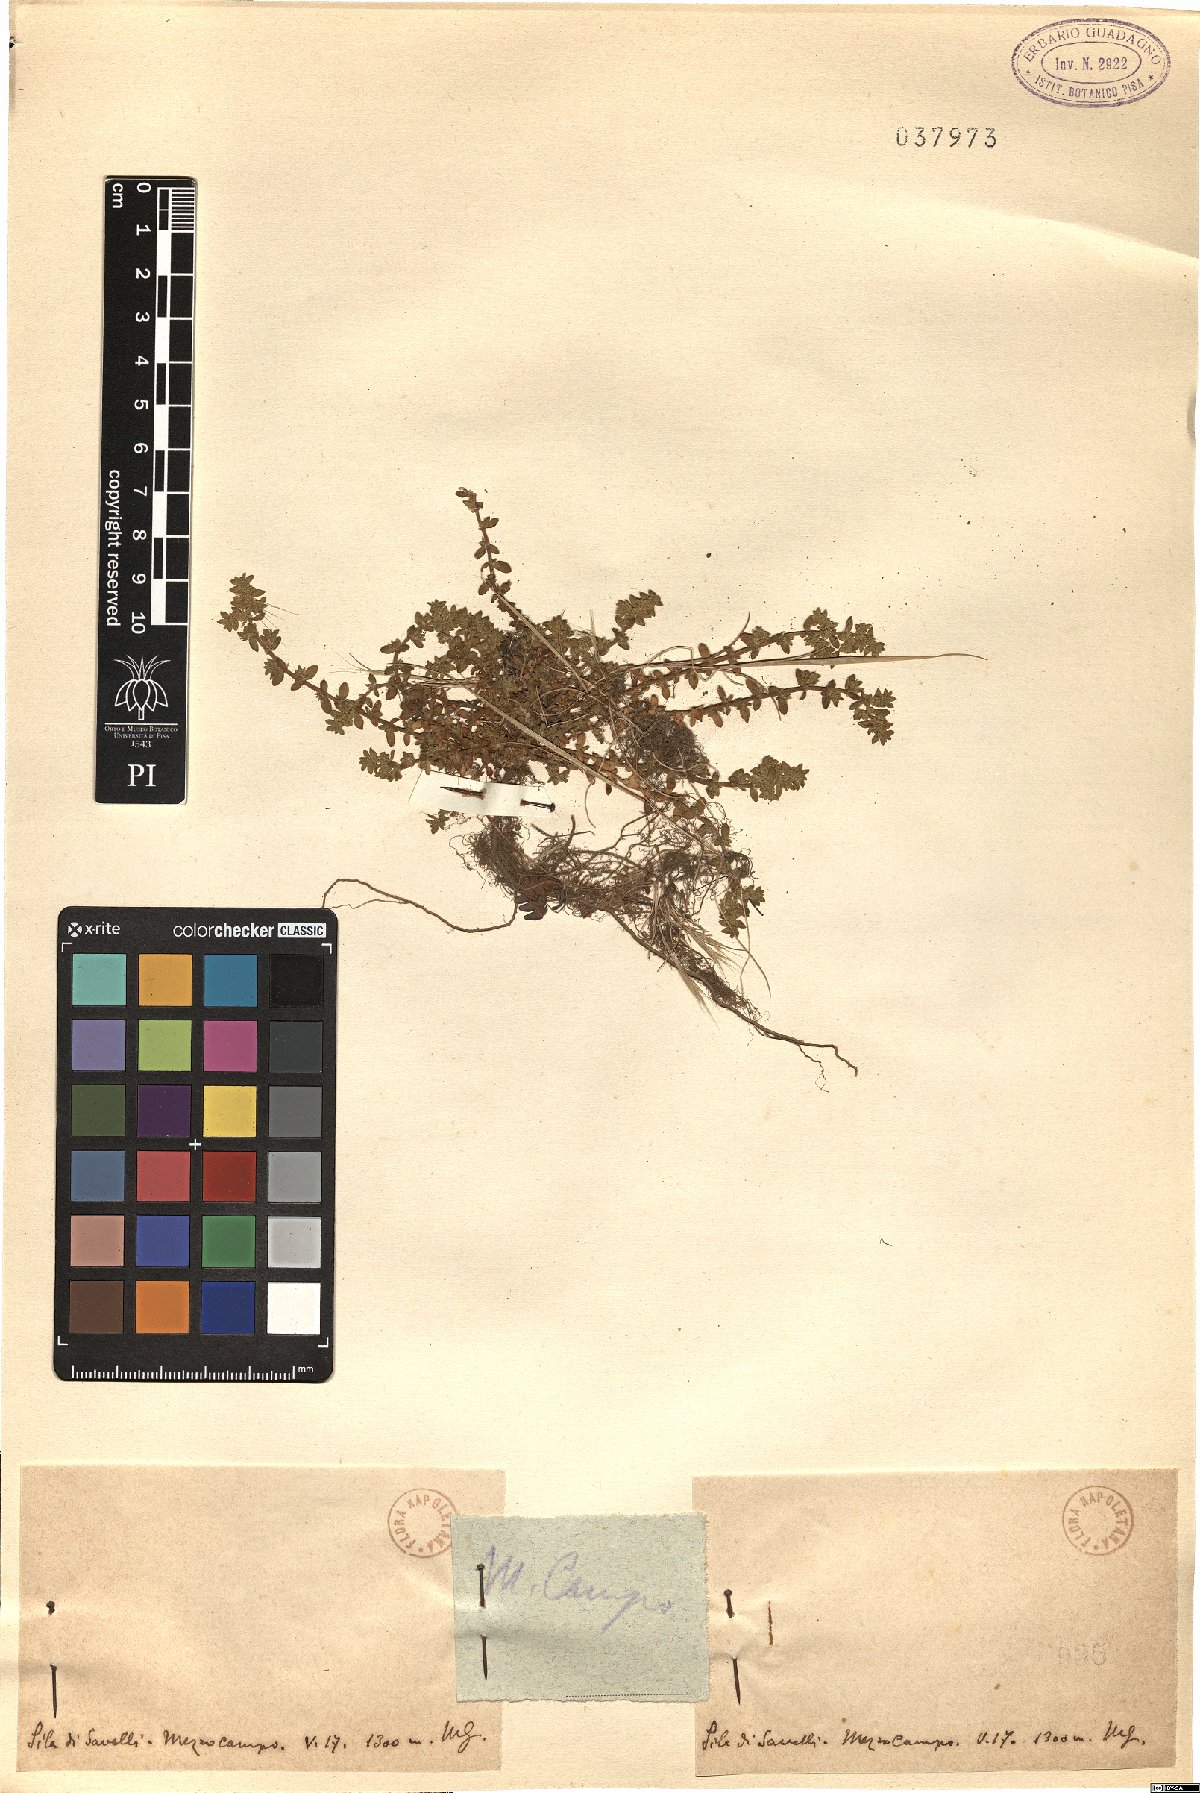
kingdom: Plantae
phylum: Tracheophyta
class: Magnoliopsida
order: Caryophyllales
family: Caryophyllaceae
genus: Herniaria
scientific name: Herniaria
